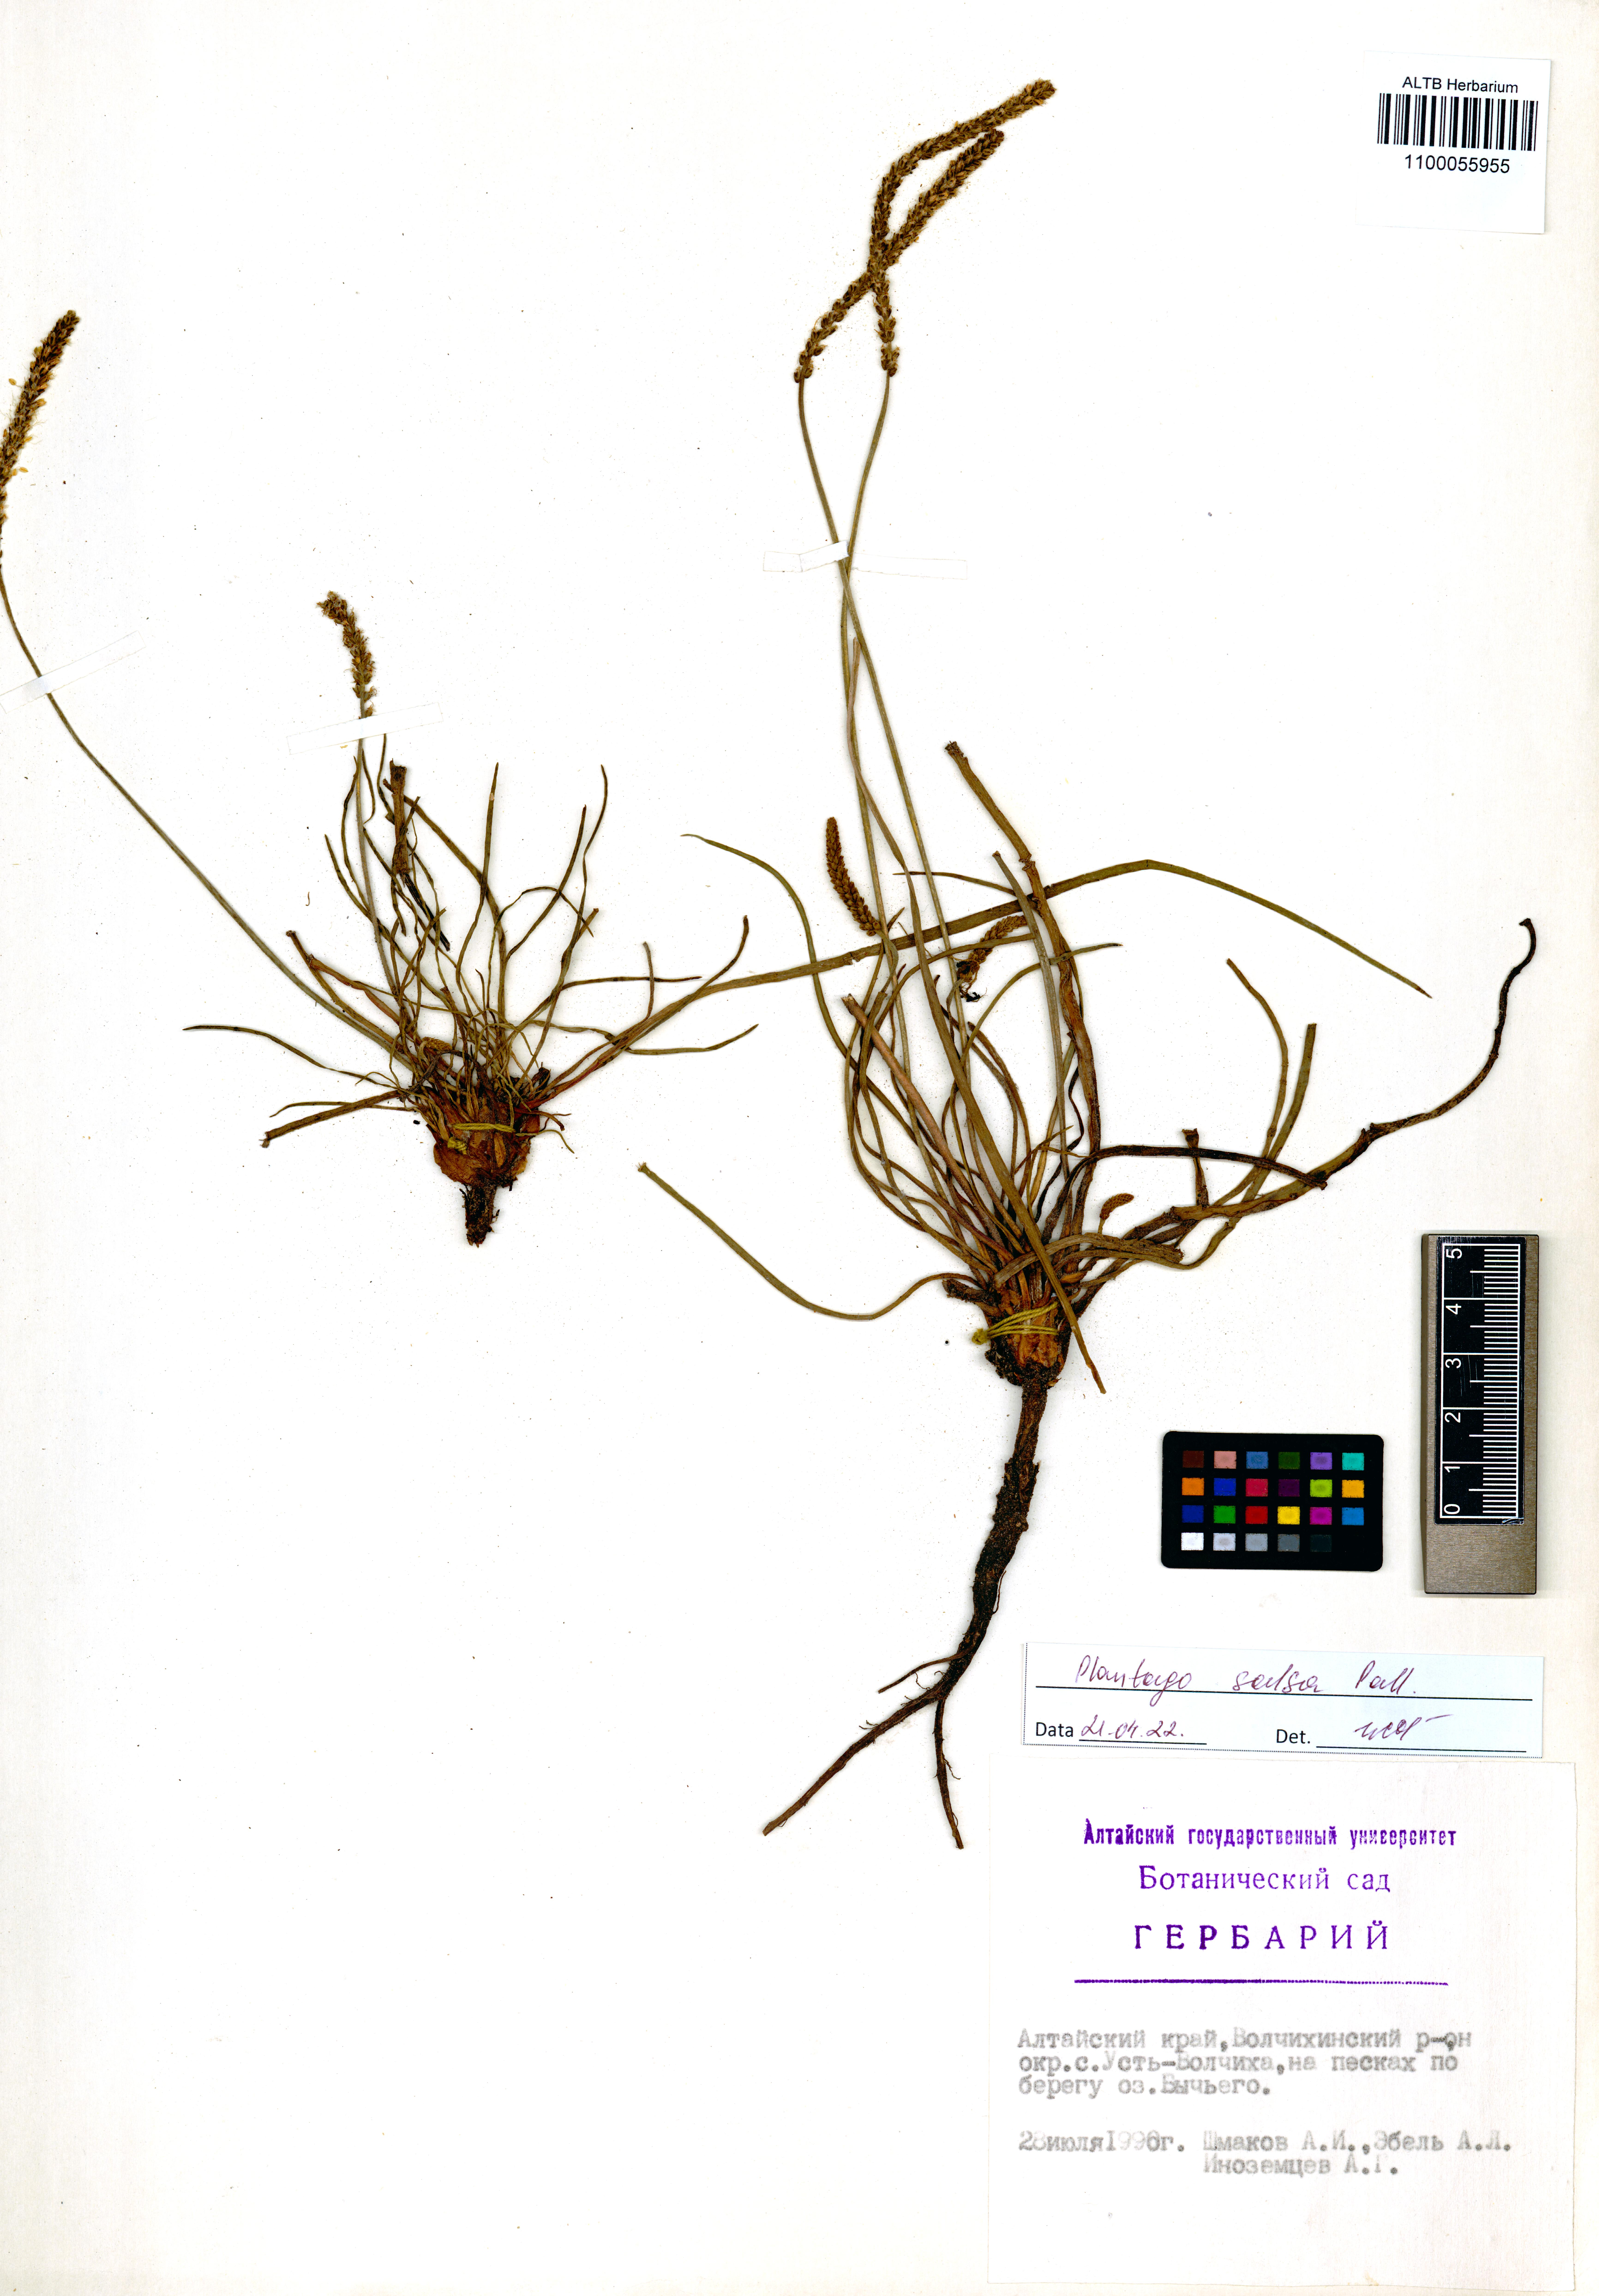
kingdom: Plantae
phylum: Tracheophyta
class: Magnoliopsida
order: Lamiales
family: Plantaginaceae
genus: Plantago
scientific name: Plantago salsa
